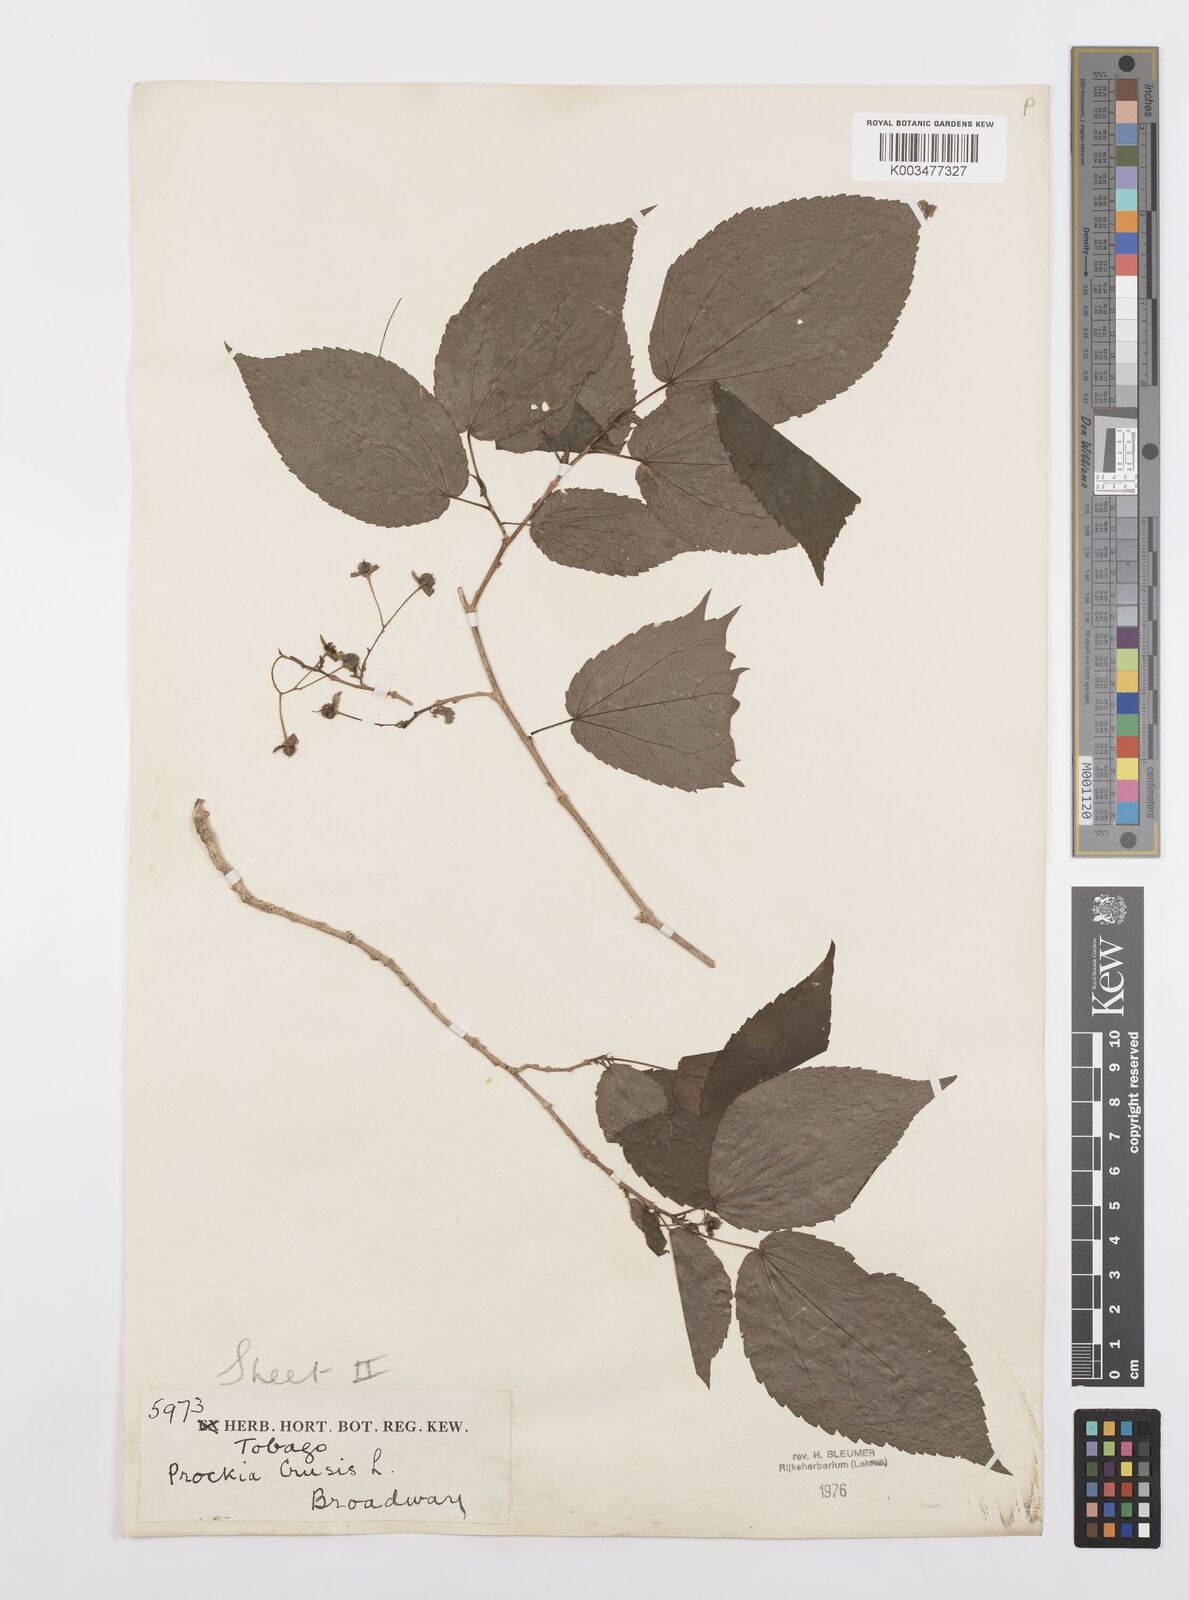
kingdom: Plantae
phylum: Tracheophyta
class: Magnoliopsida
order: Malpighiales
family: Salicaceae
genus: Prockia
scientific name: Prockia crucis
